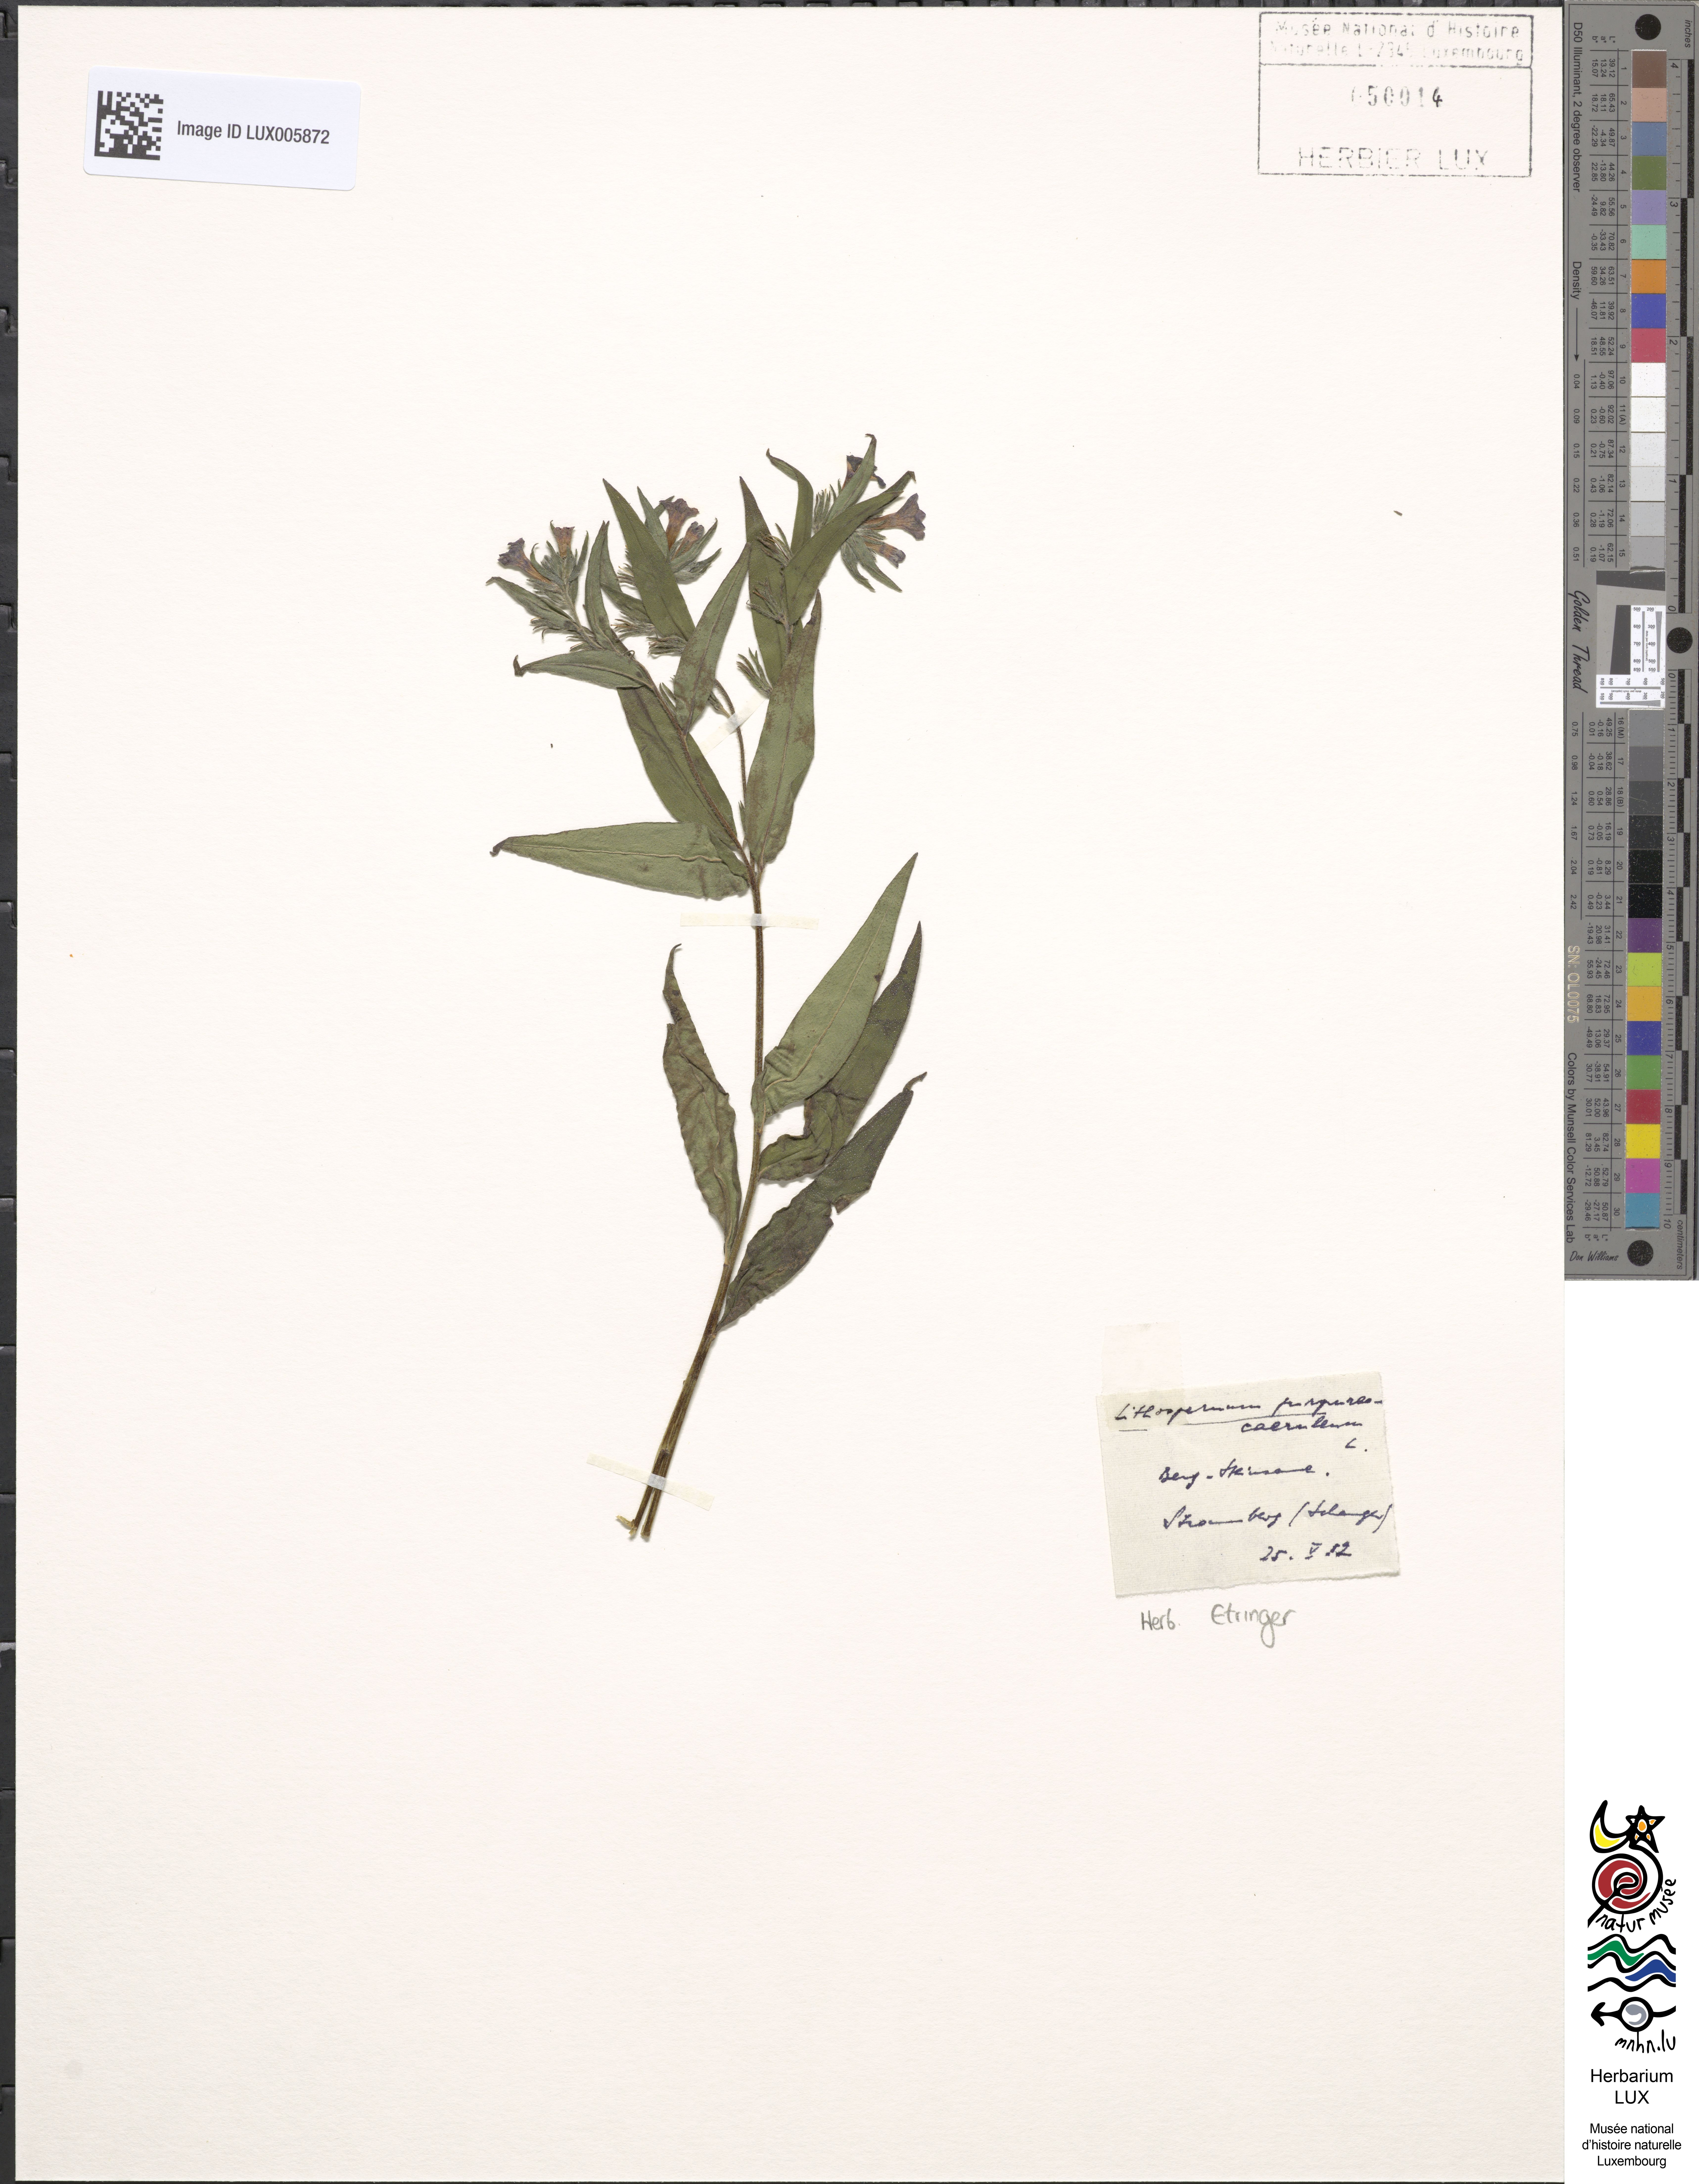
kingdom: Plantae
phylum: Tracheophyta
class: Magnoliopsida
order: Boraginales
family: Boraginaceae
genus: Aegonychon
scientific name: Aegonychon purpurocaeruleum
